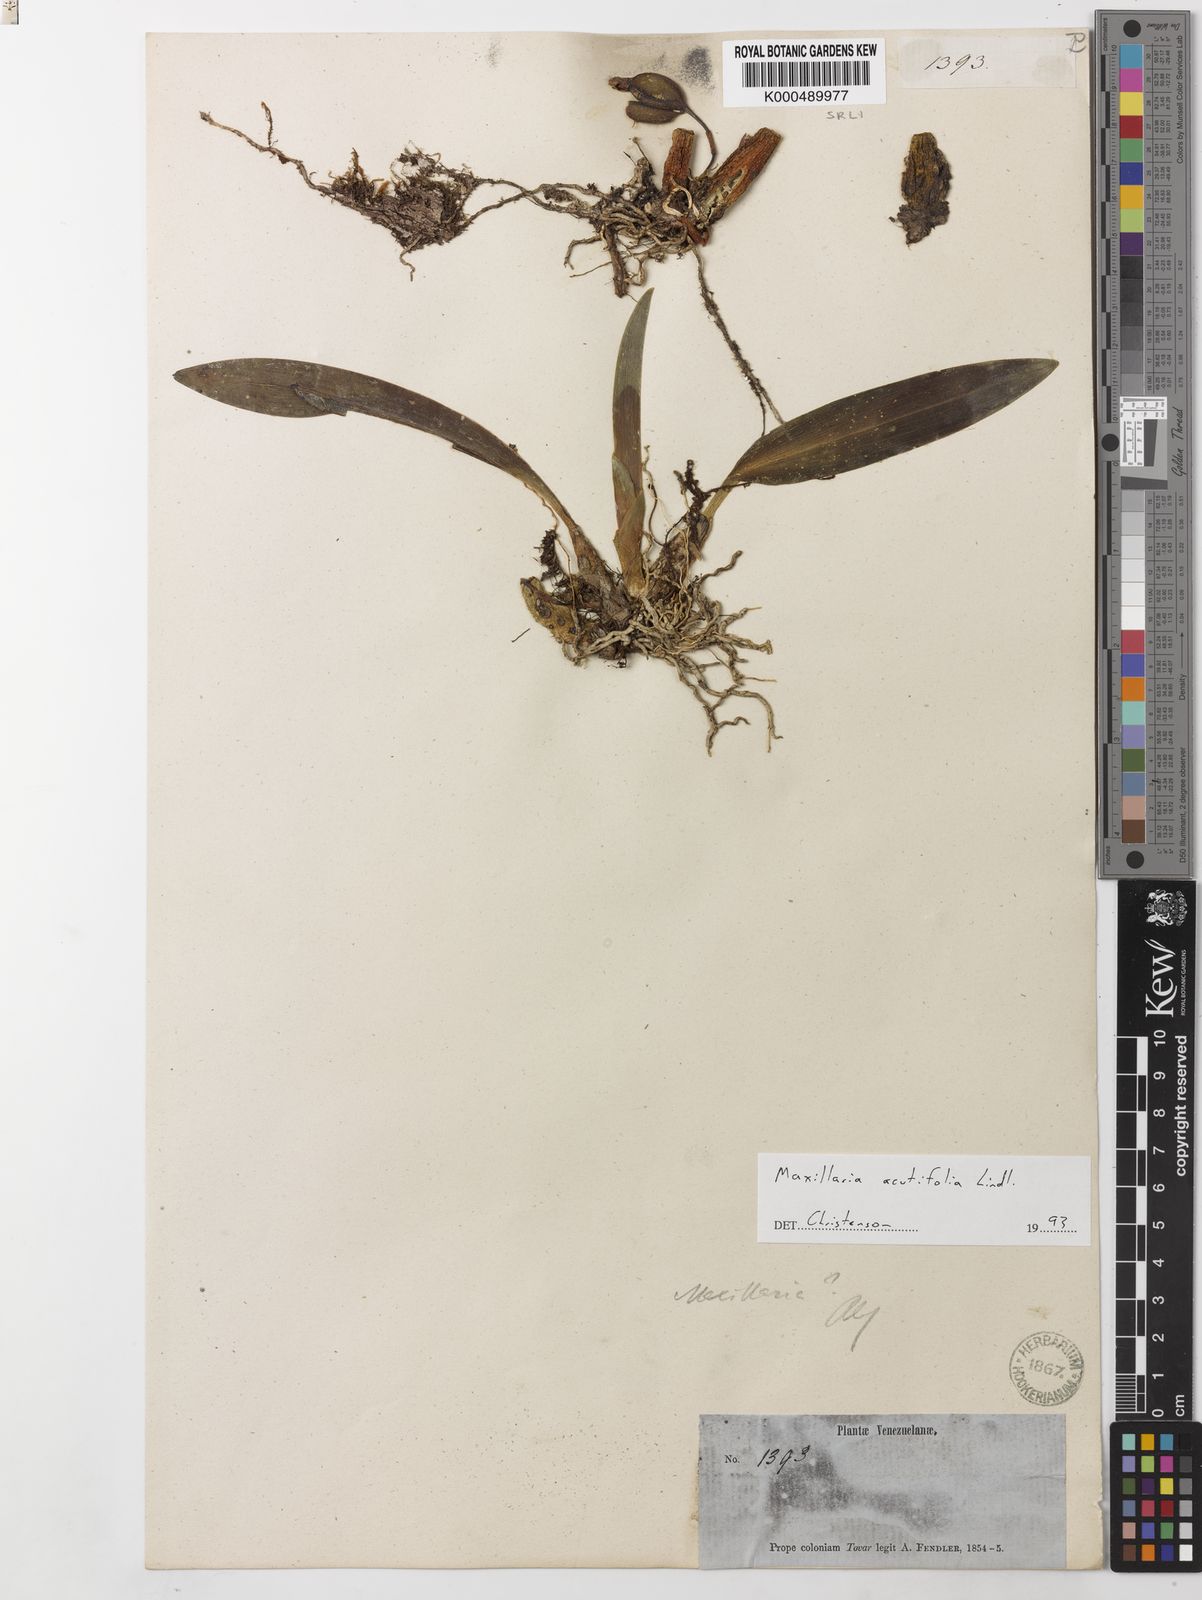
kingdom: Plantae
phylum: Tracheophyta
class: Liliopsida
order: Asparagales
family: Orchidaceae
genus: Maxillaria
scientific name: Maxillaria acutifolia
